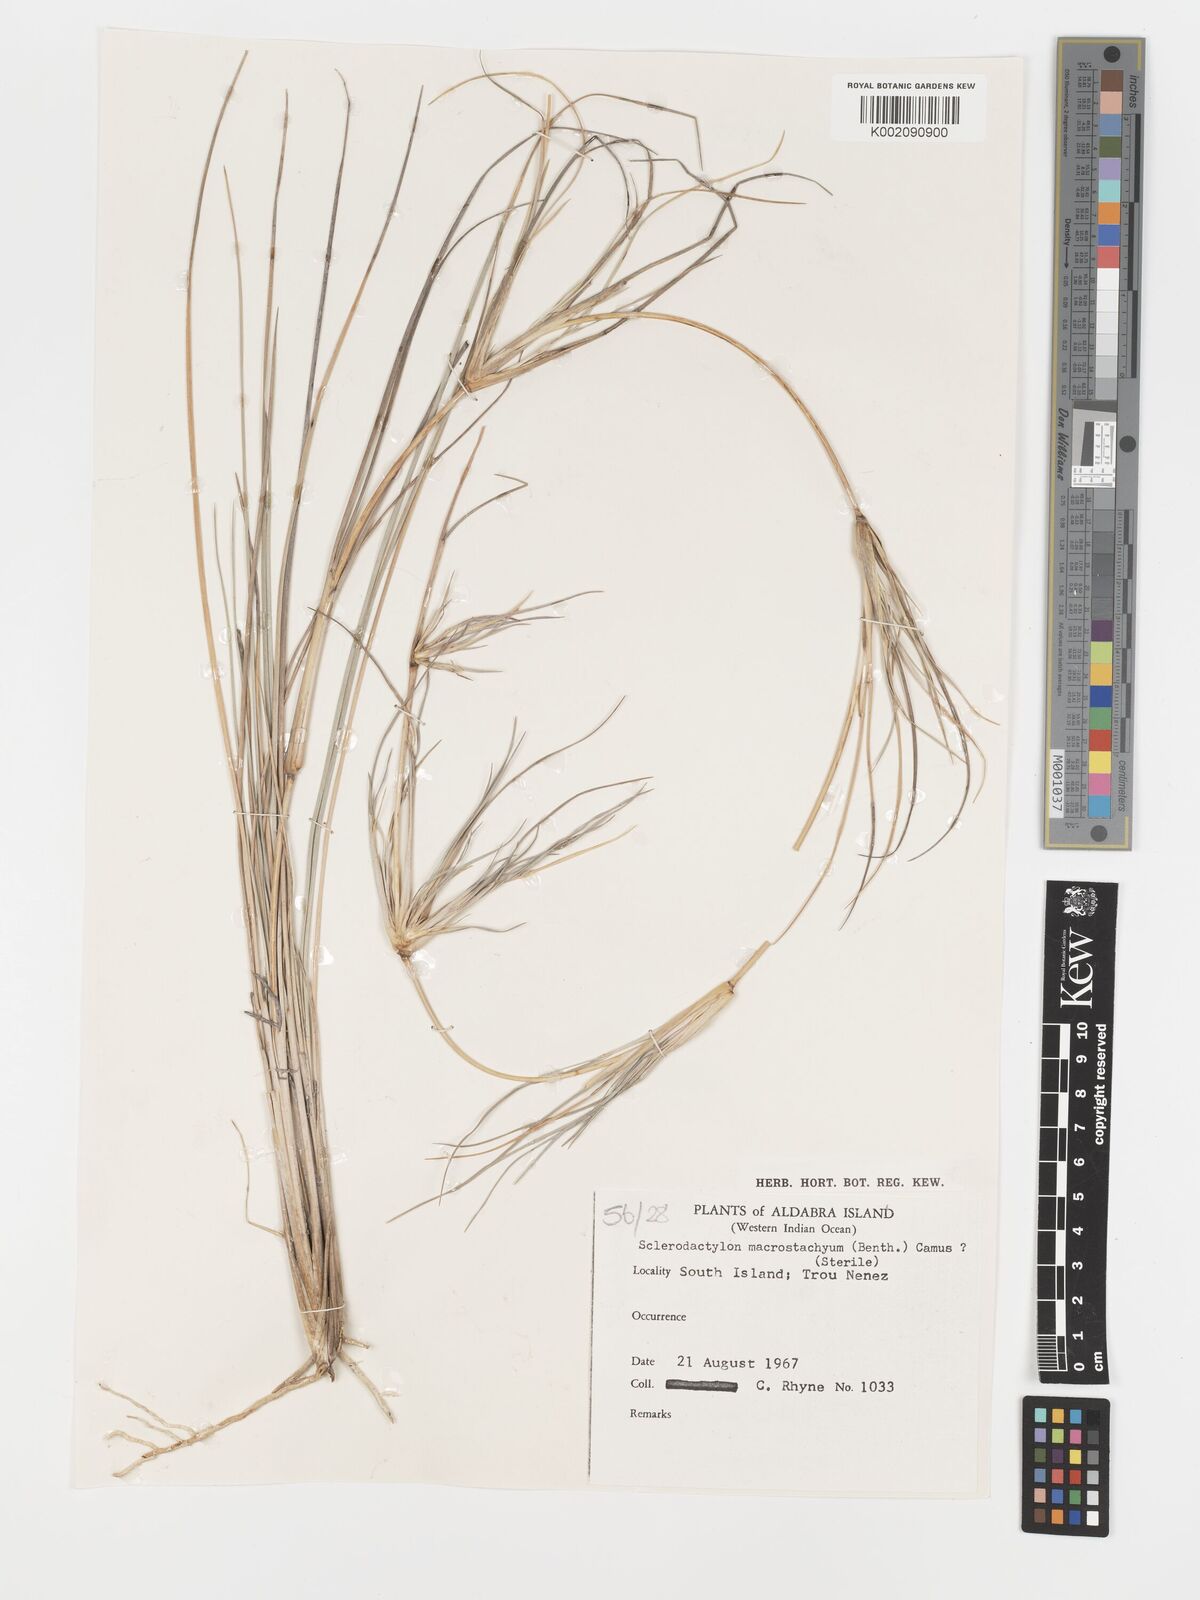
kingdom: Plantae
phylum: Tracheophyta
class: Liliopsida
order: Poales
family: Poaceae
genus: Sclerodactylon
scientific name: Sclerodactylon macrostachyum
